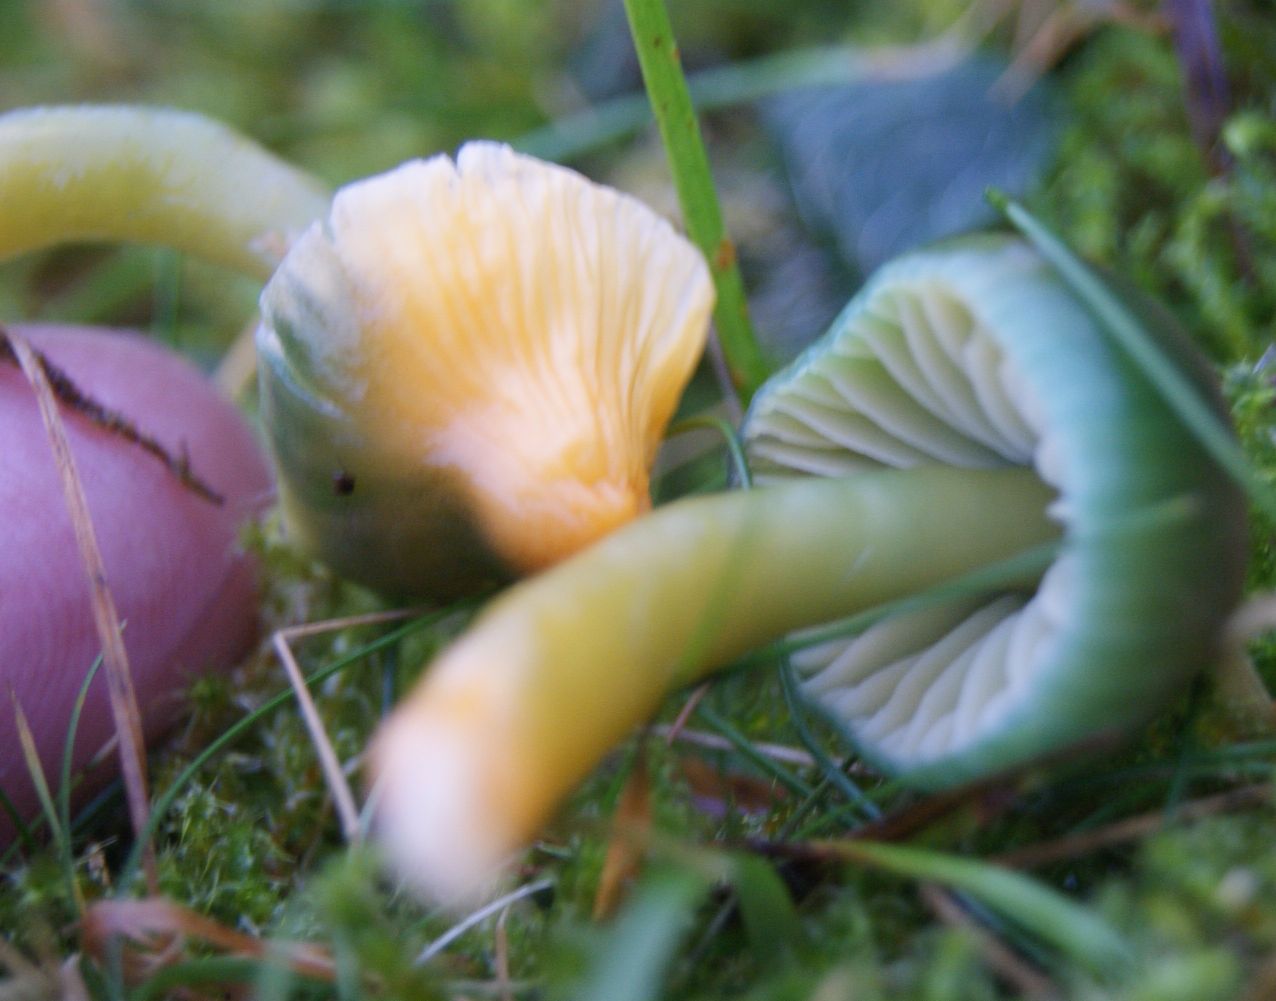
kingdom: Fungi
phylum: Basidiomycota
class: Agaricomycetes
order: Agaricales
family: Hygrophoraceae
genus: Gliophorus
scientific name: Gliophorus psittacinus
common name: papegøje-vokshat
